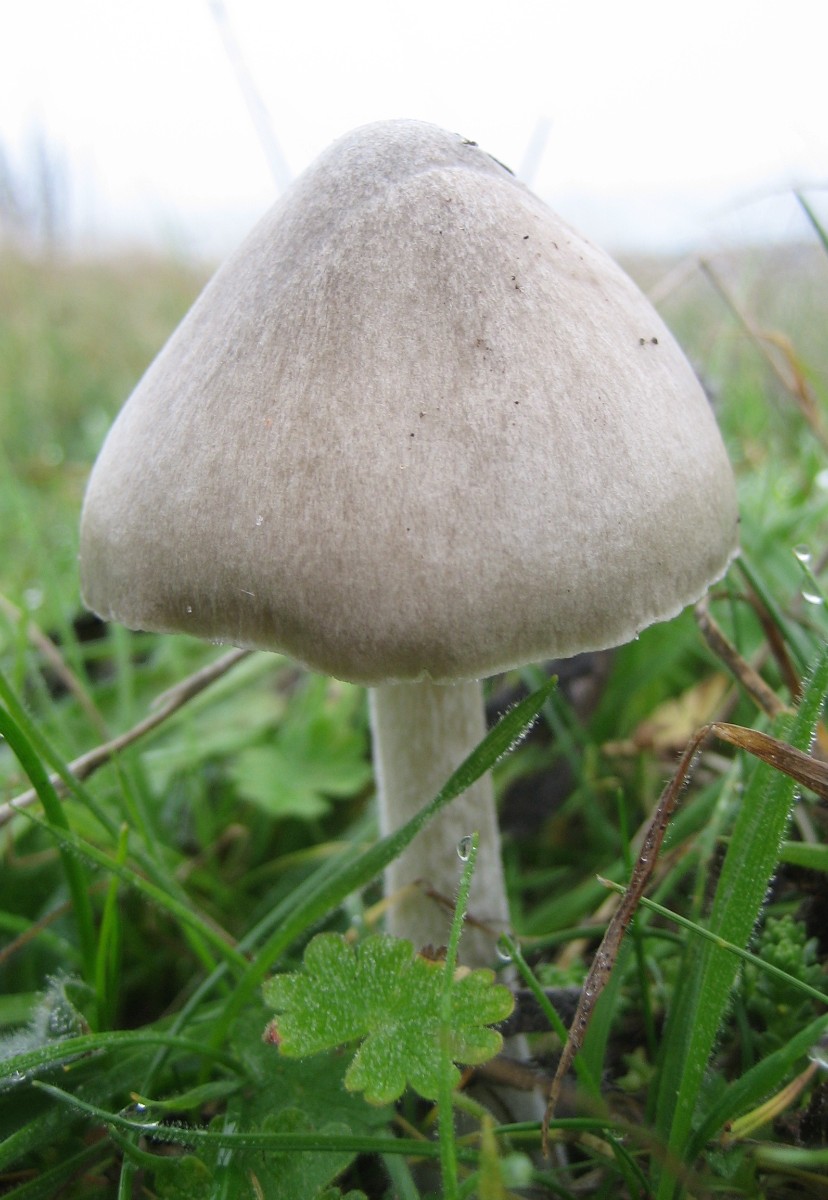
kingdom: Fungi
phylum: Basidiomycota
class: Agaricomycetes
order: Agaricales
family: Pluteaceae
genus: Volvopluteus
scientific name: Volvopluteus gloiocephalus
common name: høj posesvamp
